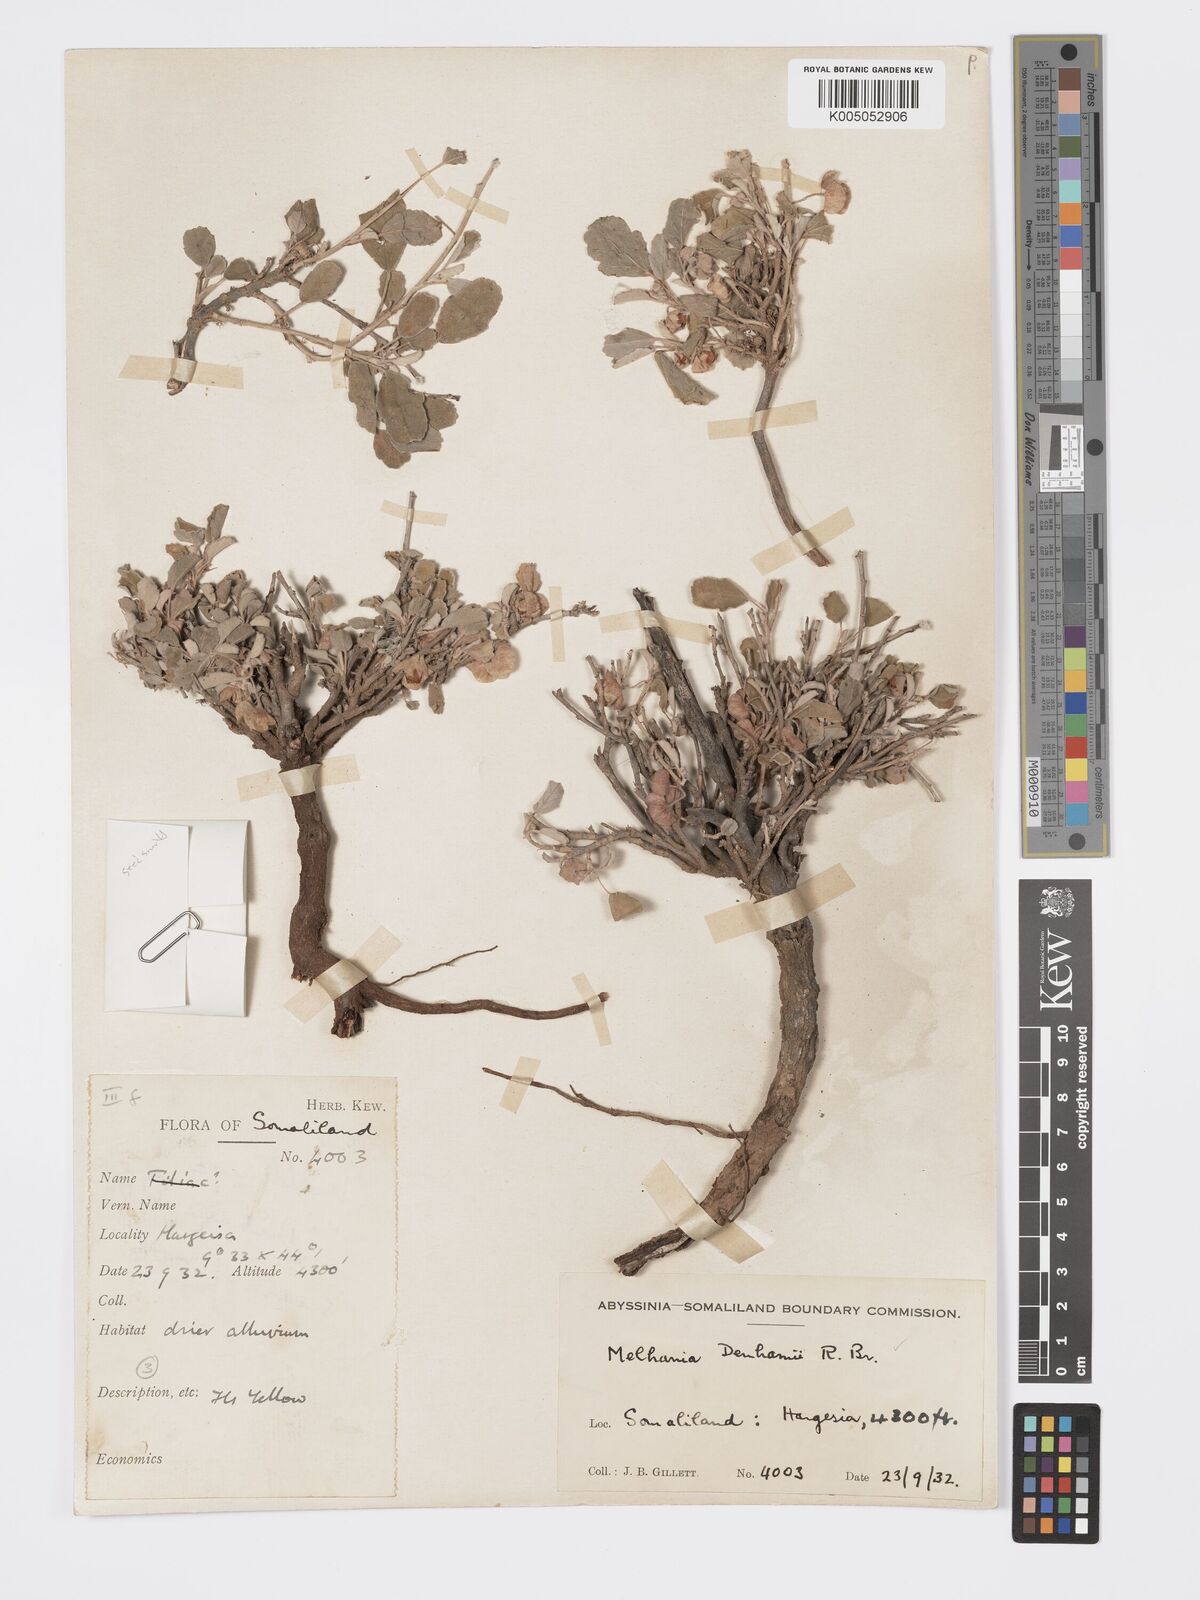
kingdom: Plantae
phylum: Tracheophyta
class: Magnoliopsida
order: Malvales
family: Malvaceae
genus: Melhania
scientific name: Melhania denhamii
